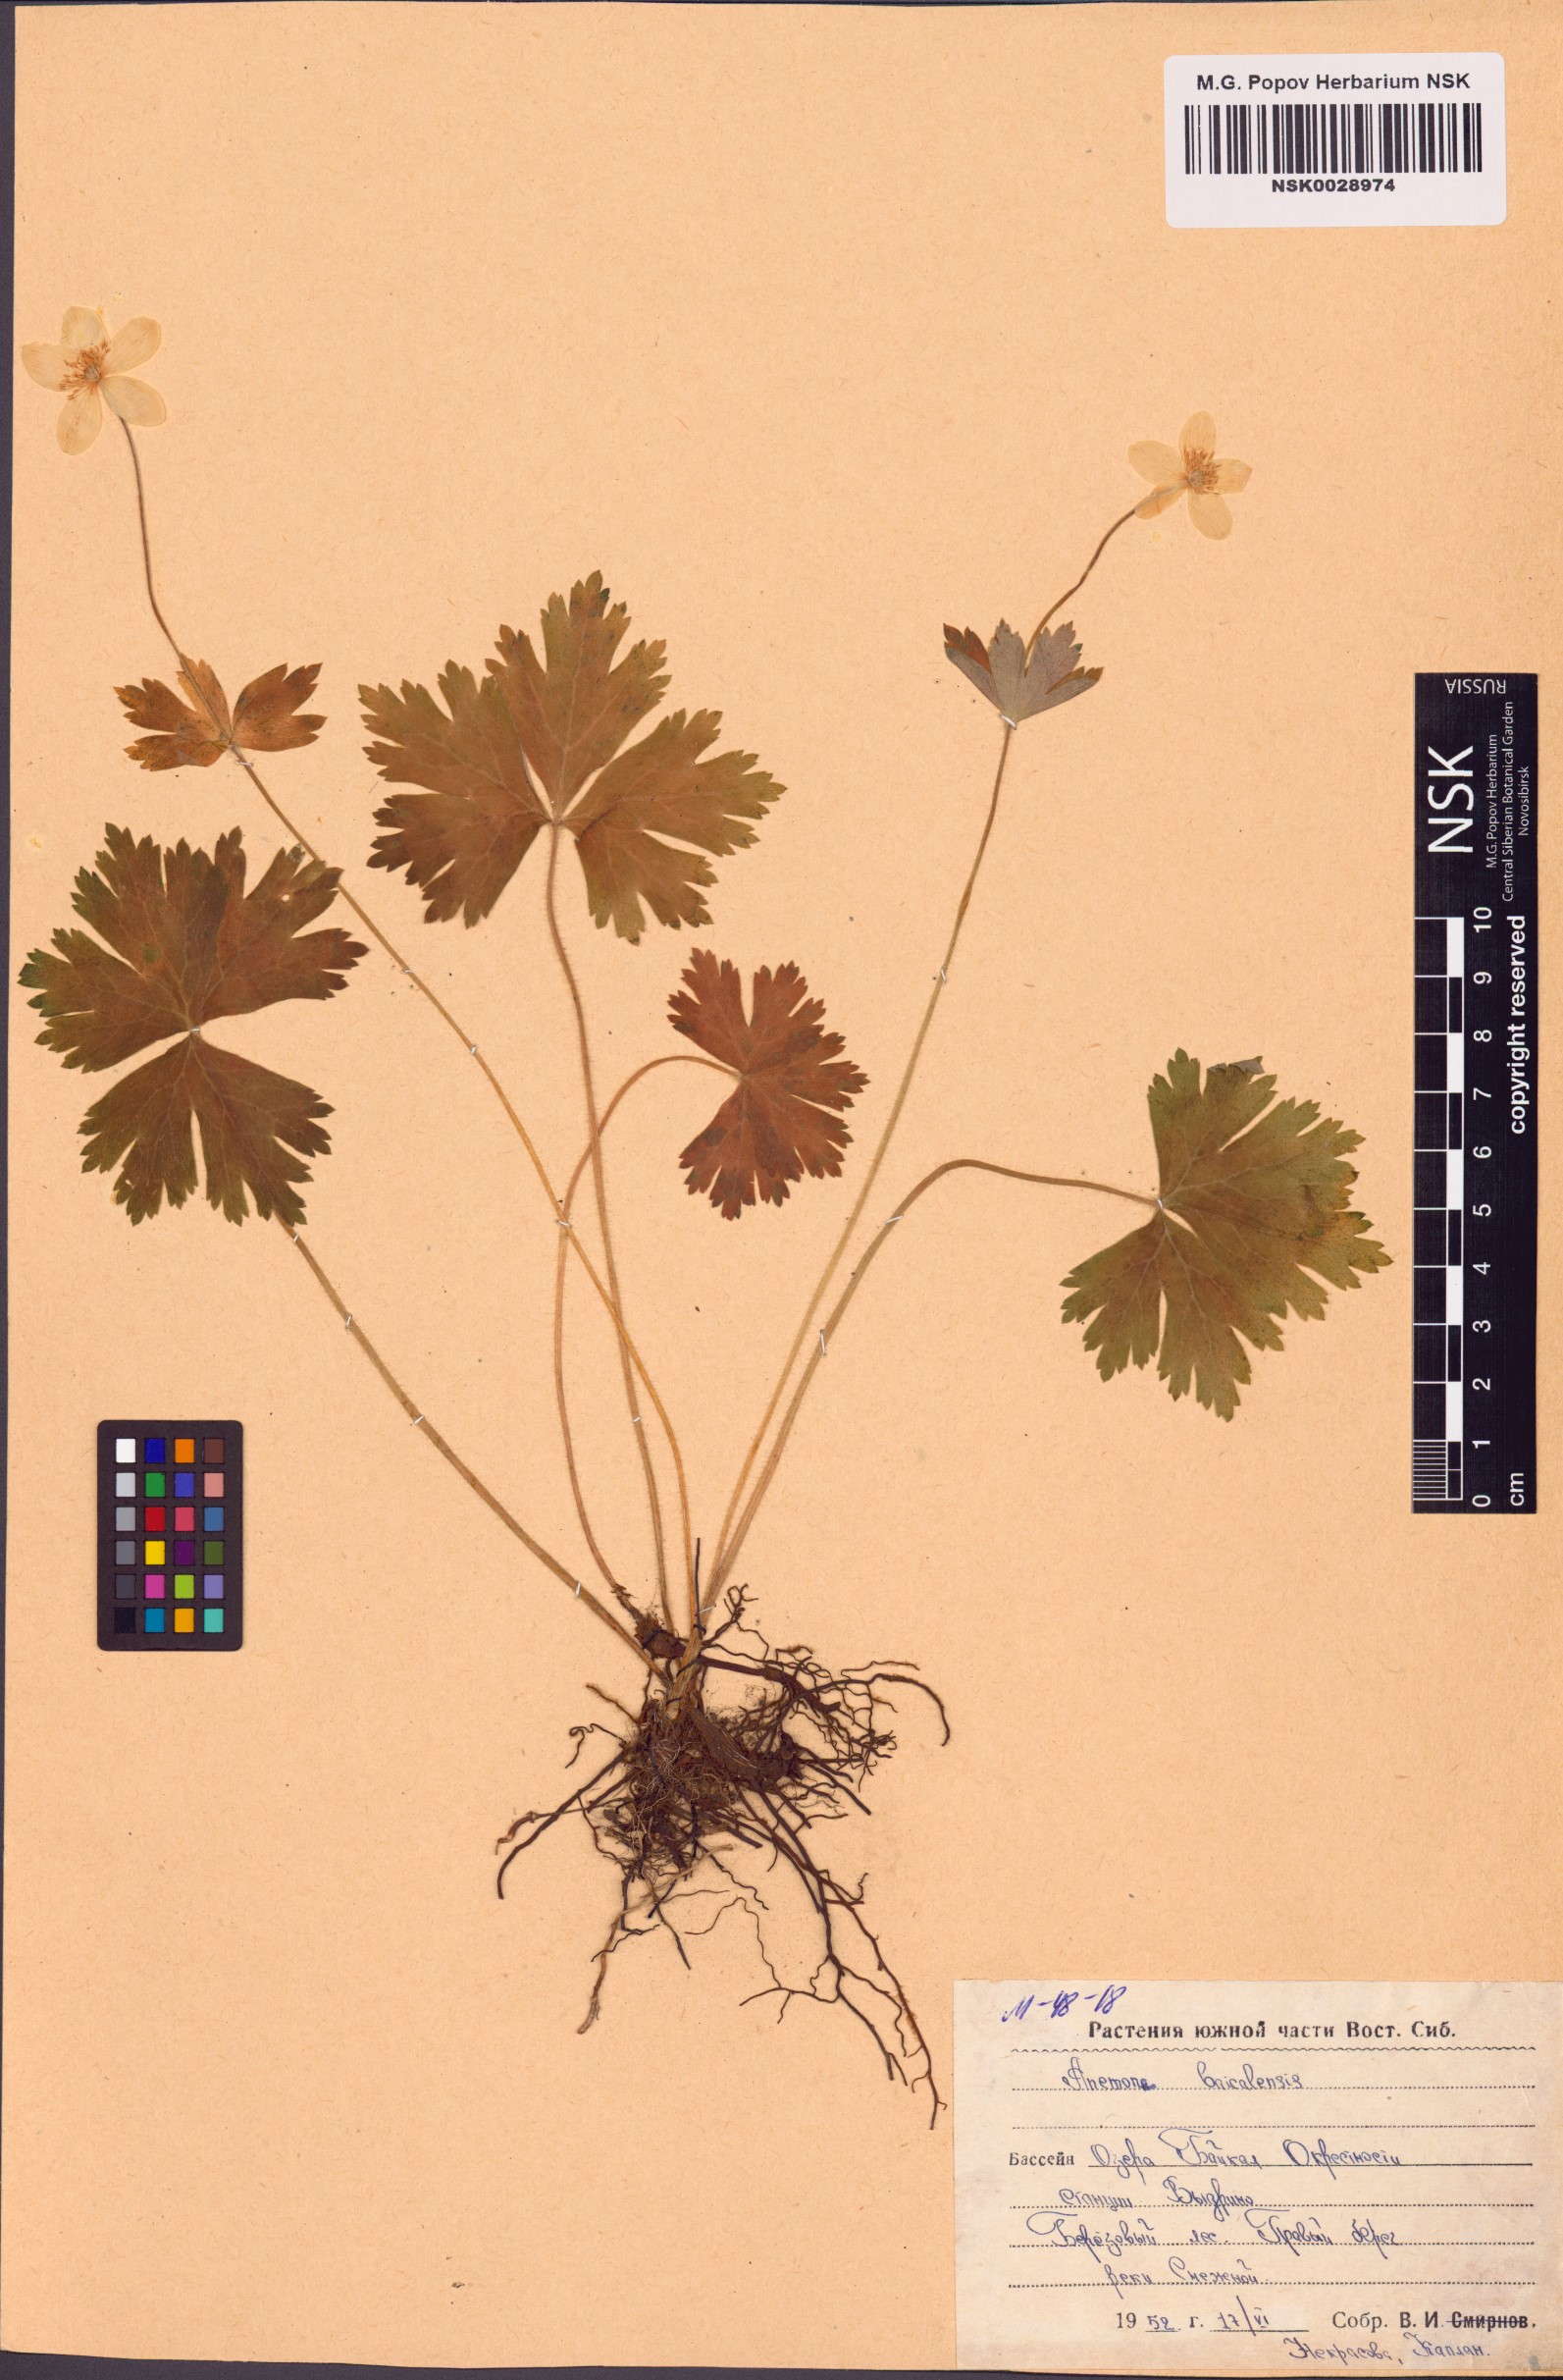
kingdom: Plantae
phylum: Tracheophyta
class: Magnoliopsida
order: Ranunculales
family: Ranunculaceae
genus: Anemonastrum
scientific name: Anemonastrum baicalense
